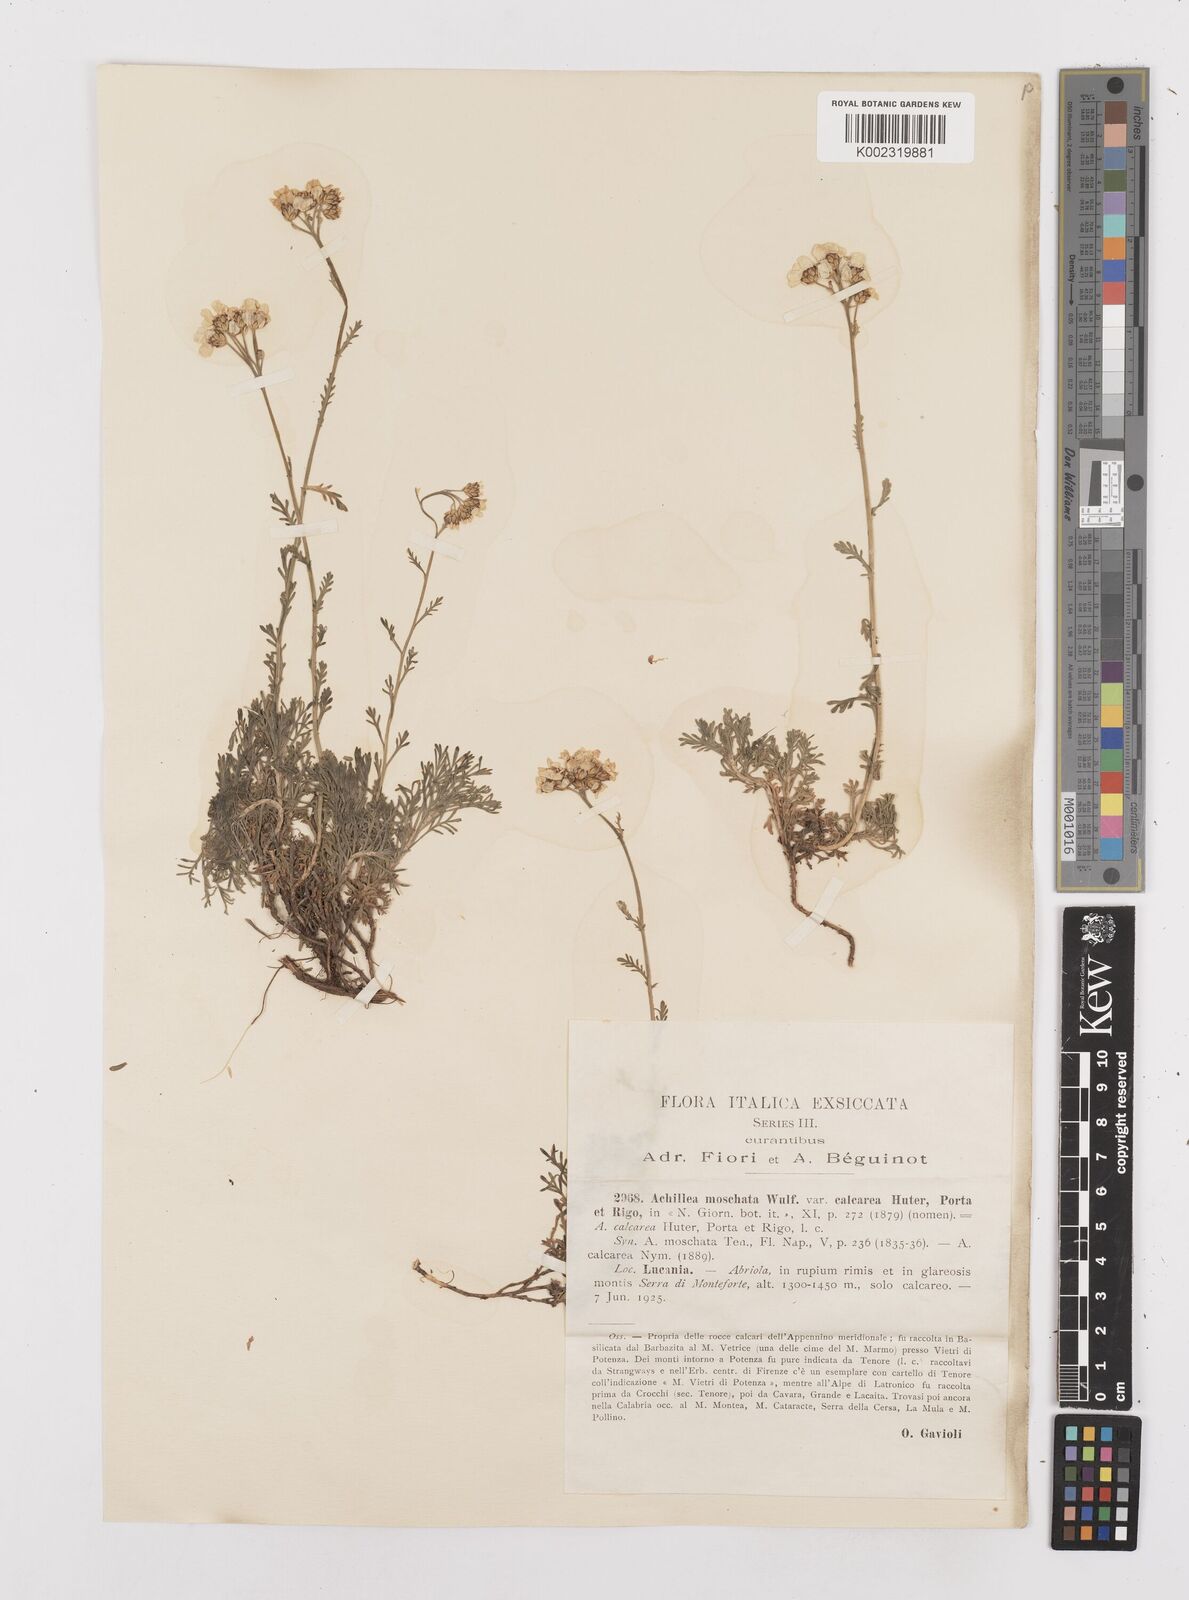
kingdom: Plantae
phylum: Tracheophyta
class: Magnoliopsida
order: Asterales
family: Asteraceae
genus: Achillea
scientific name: Achillea erba-rotta
